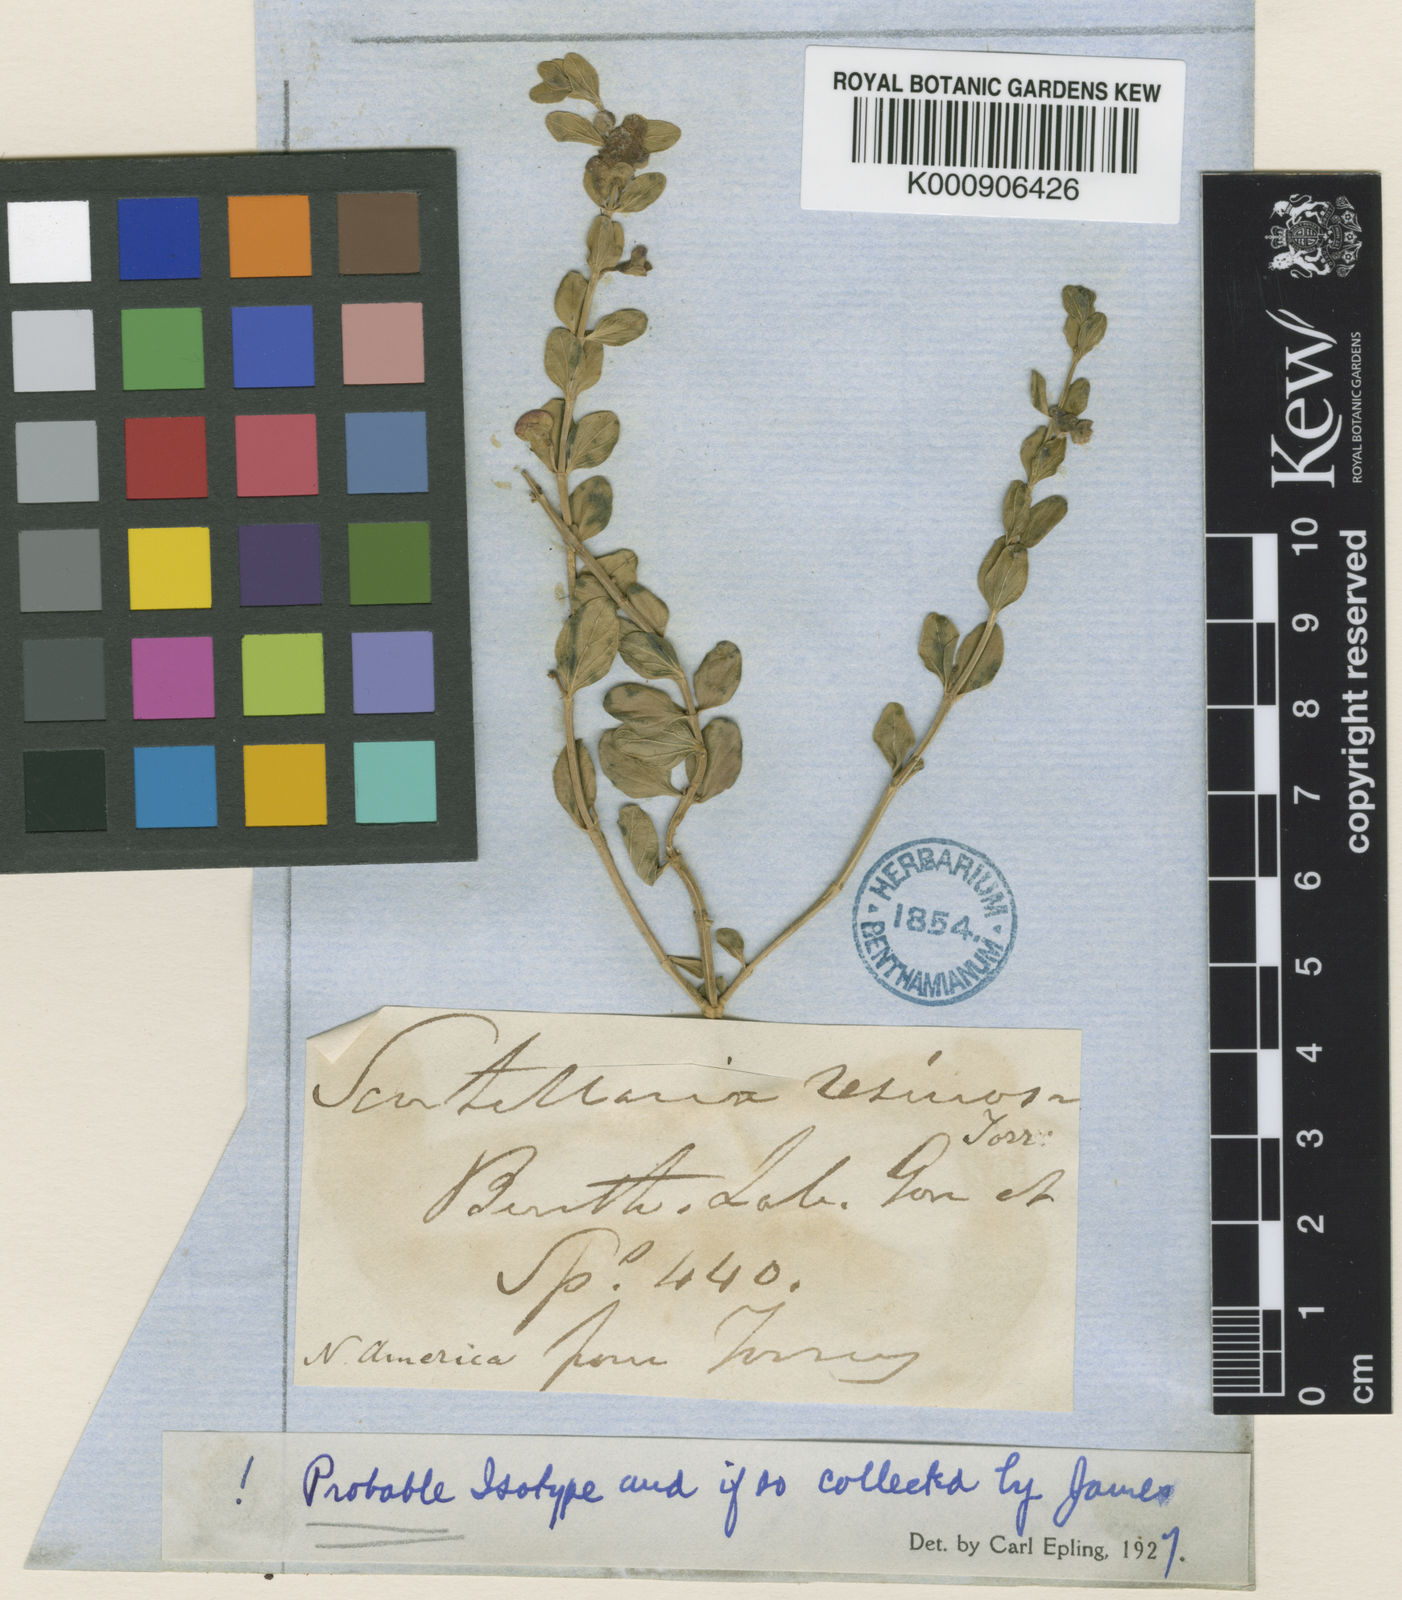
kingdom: Plantae
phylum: Tracheophyta
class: Magnoliopsida
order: Lamiales
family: Lamiaceae
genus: Scutellaria
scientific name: Scutellaria resinosa
